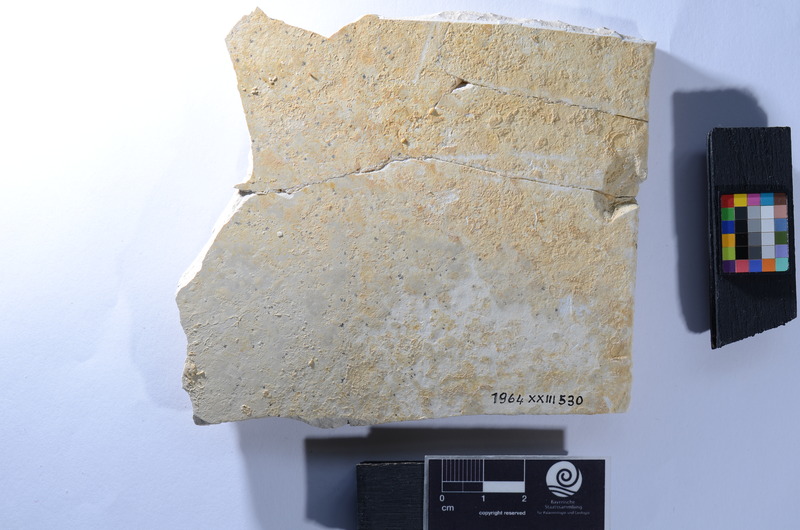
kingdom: Animalia
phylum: Chordata
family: Aspidorhynchidae
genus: Aspidorhynchus
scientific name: Aspidorhynchus
